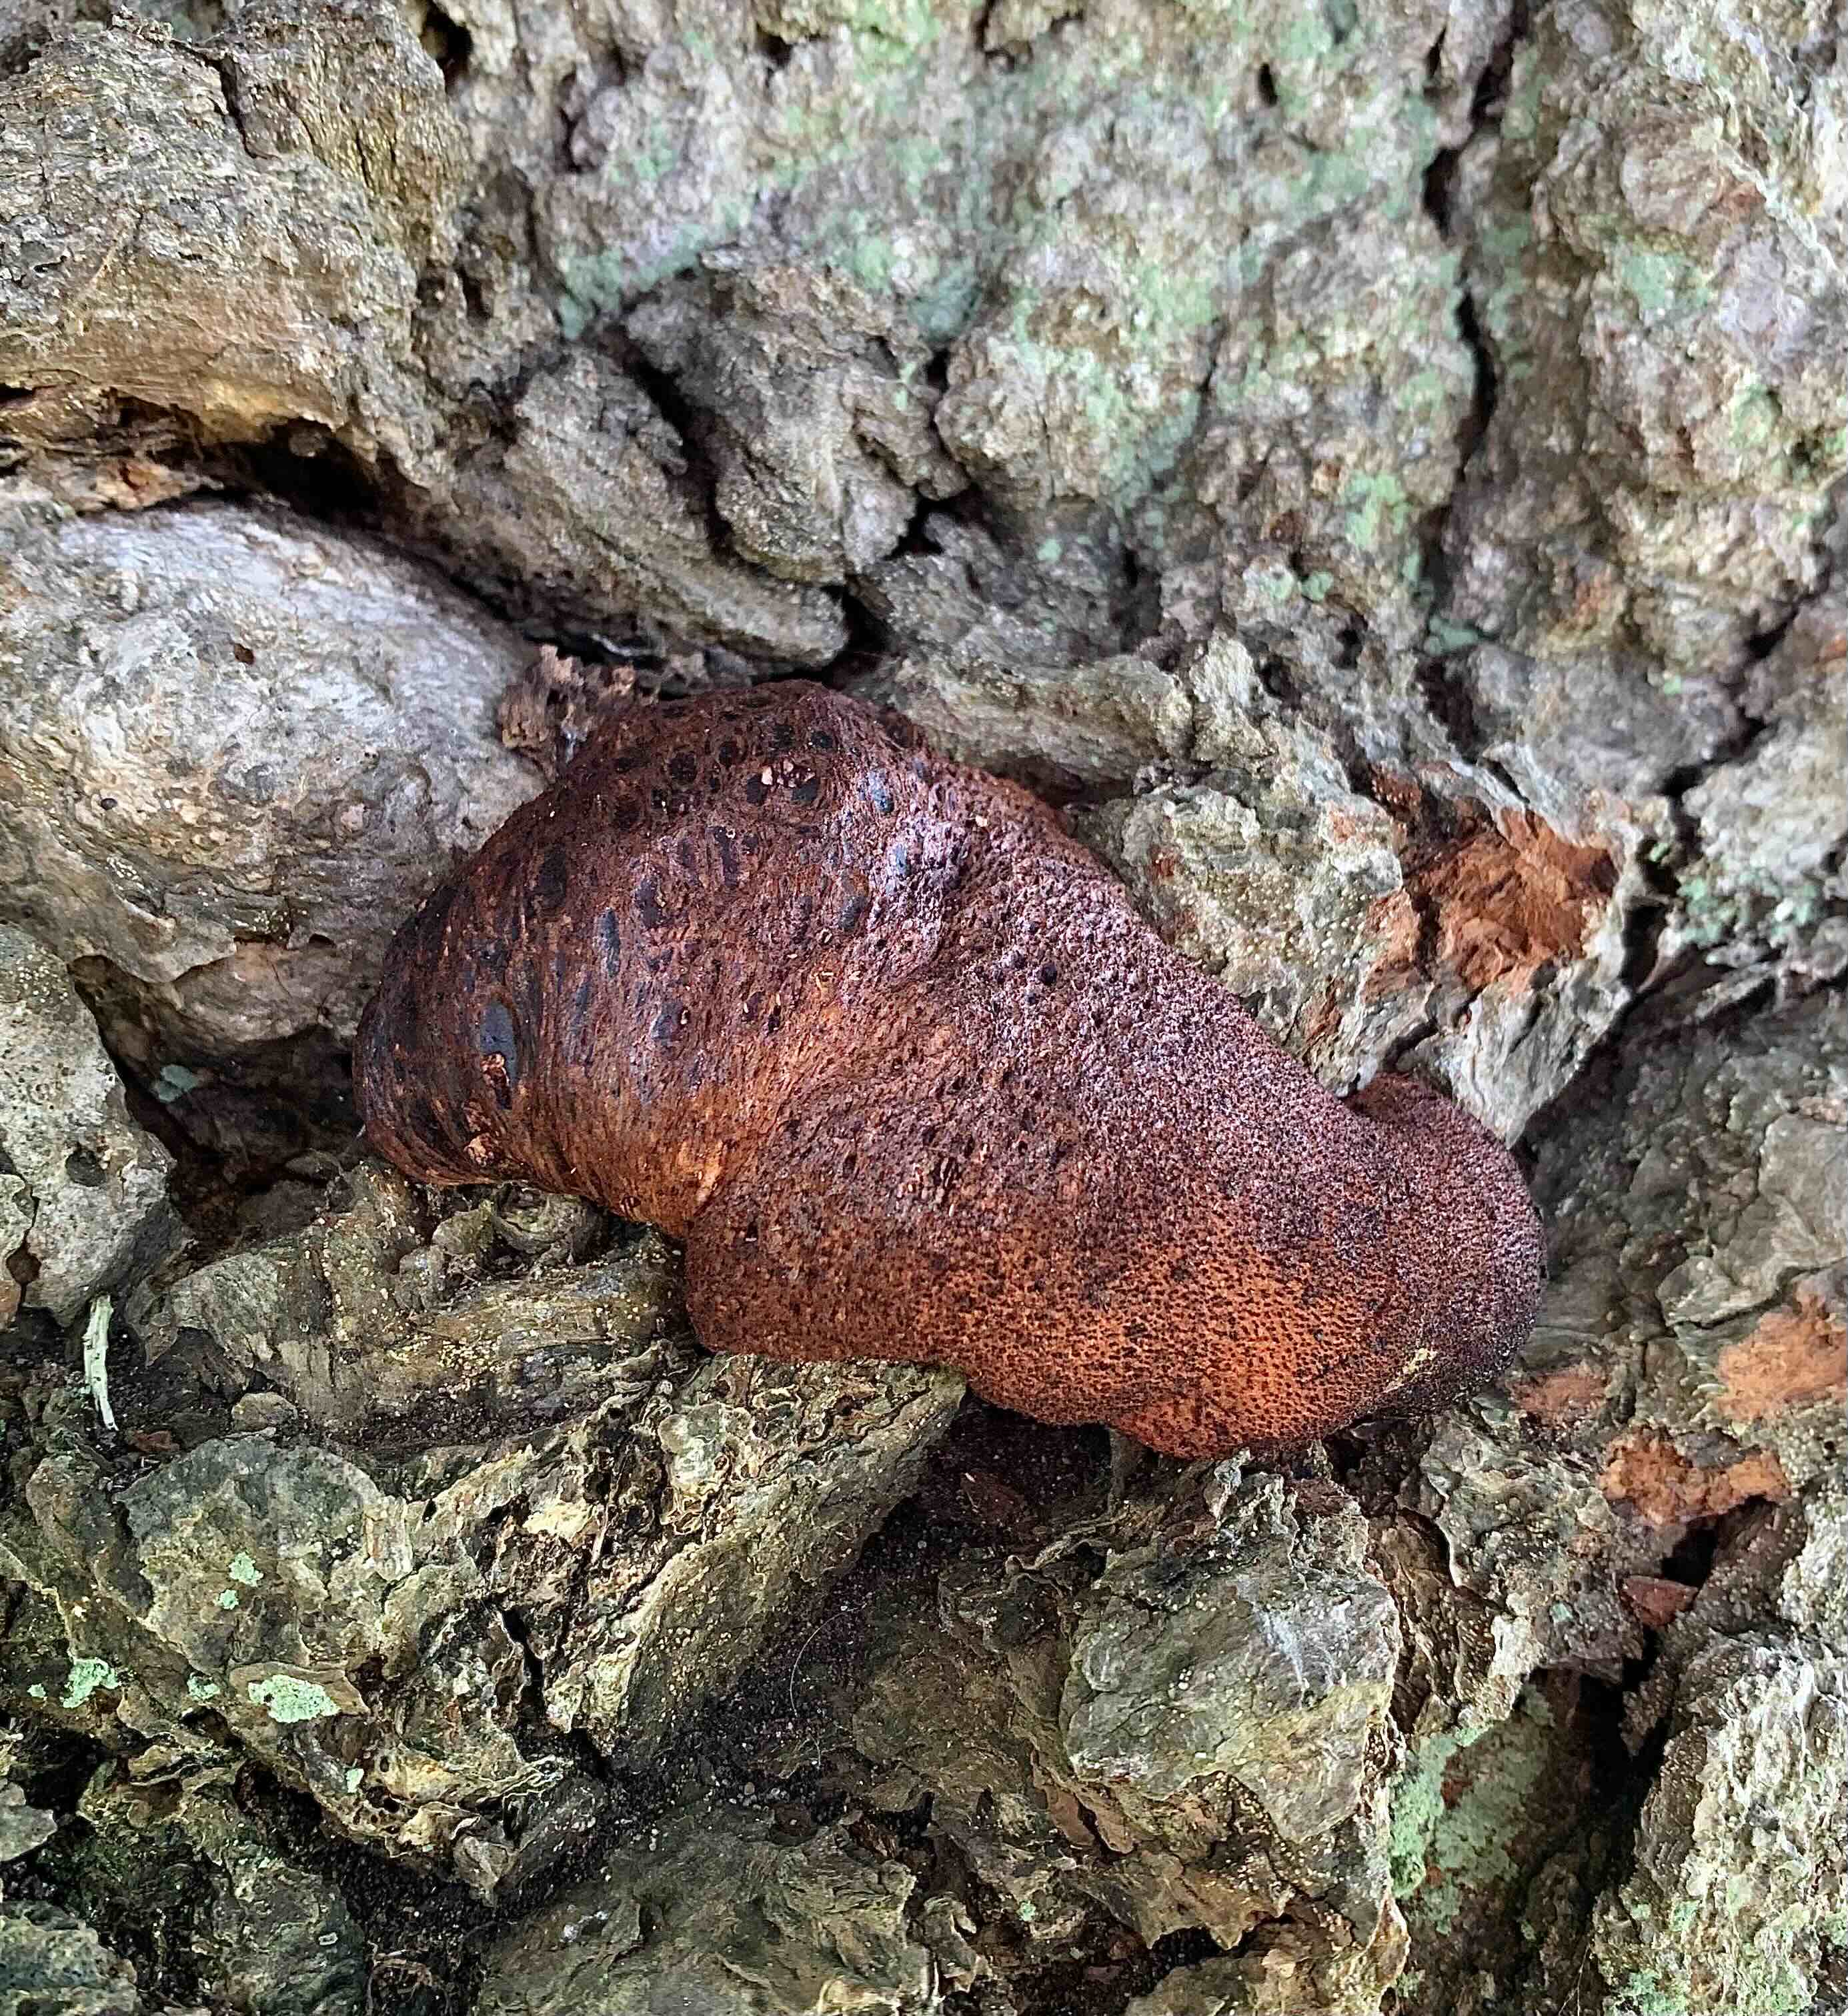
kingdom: Fungi
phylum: Basidiomycota
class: Agaricomycetes
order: Agaricales
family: Fistulinaceae
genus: Fistulina
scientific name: Fistulina hepatica
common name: oksetunge
